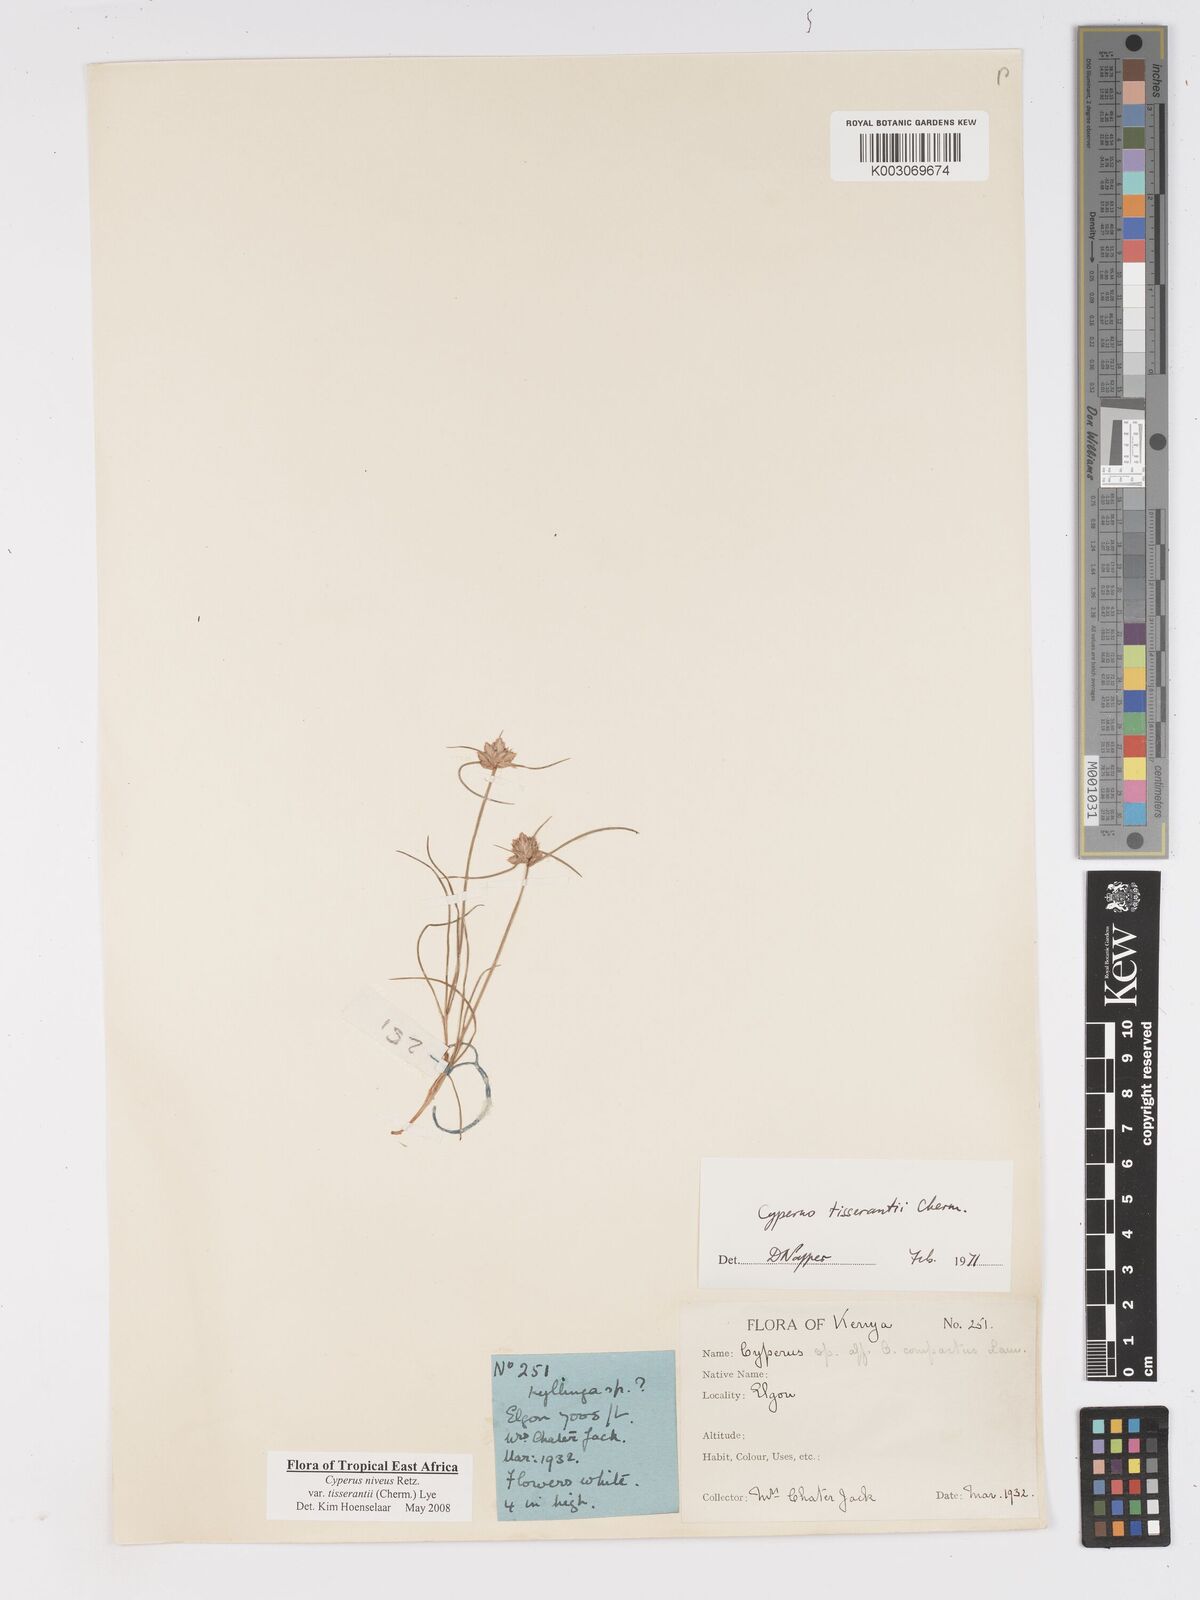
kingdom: Plantae
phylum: Tracheophyta
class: Liliopsida
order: Poales
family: Cyperaceae
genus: Cyperus
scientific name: Cyperus niveus
